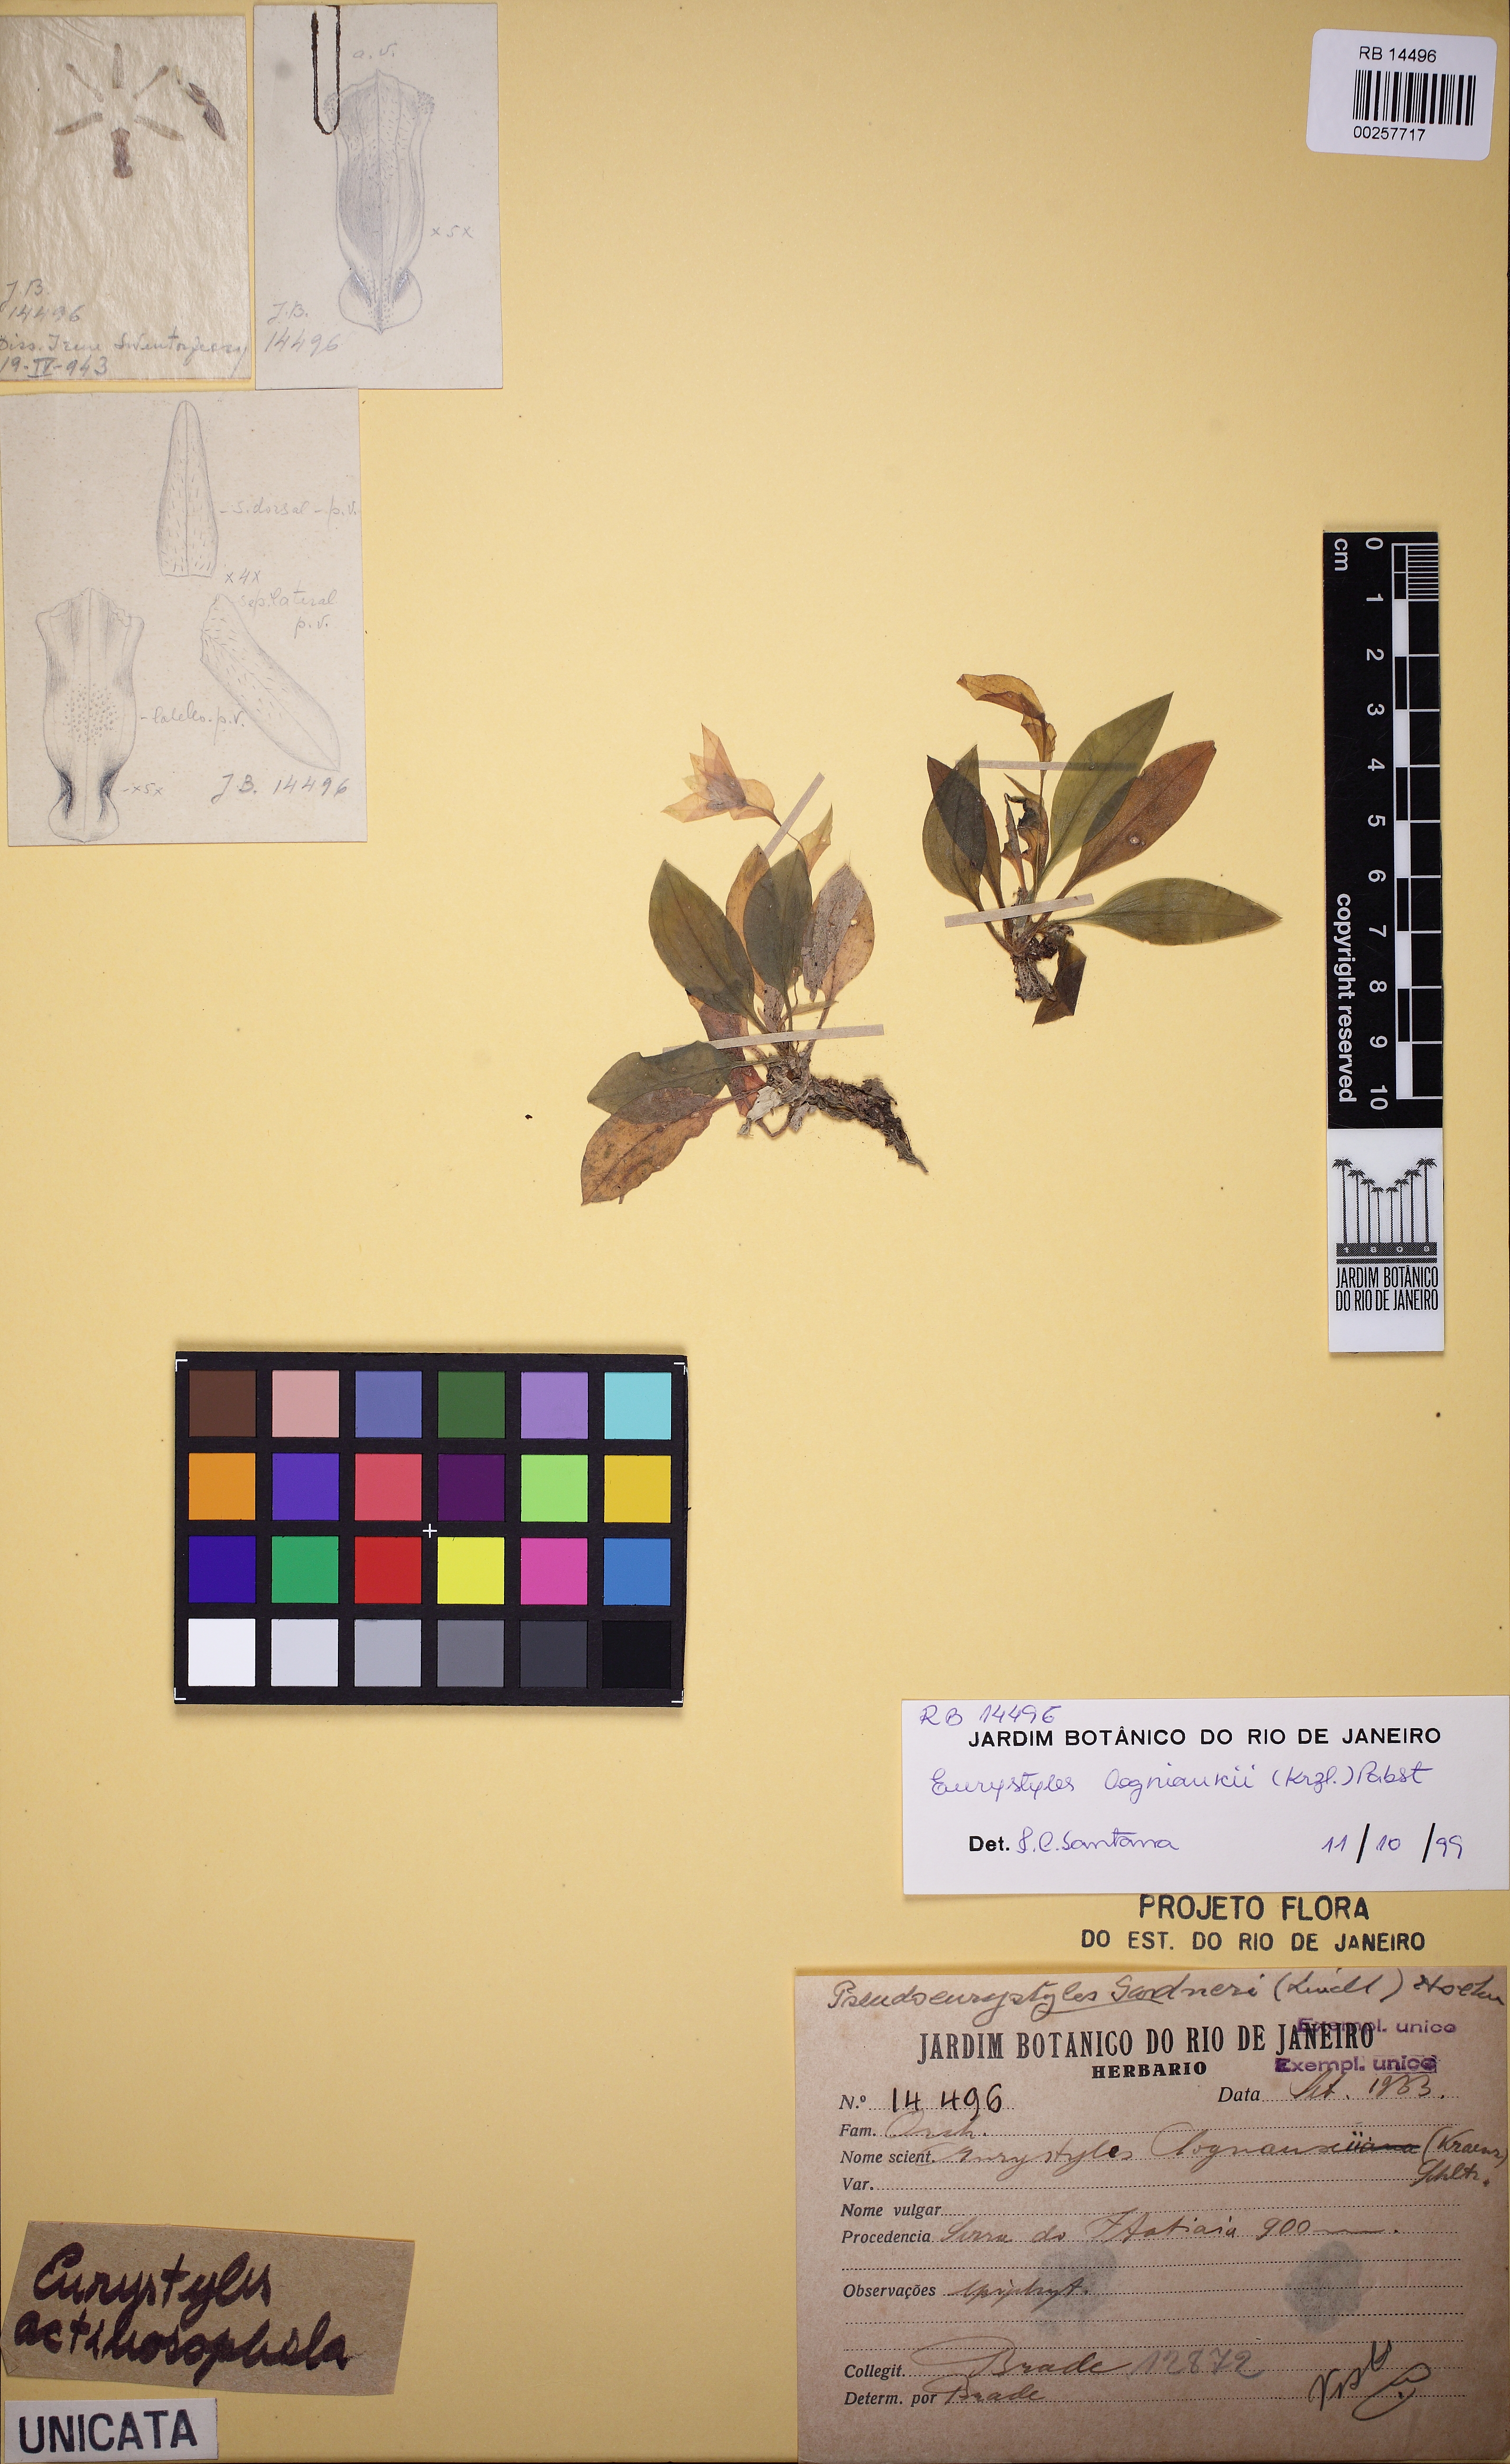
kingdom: Plantae
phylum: Tracheophyta
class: Liliopsida
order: Asparagales
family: Orchidaceae
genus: Eurystyles
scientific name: Eurystyles cogniauxii
